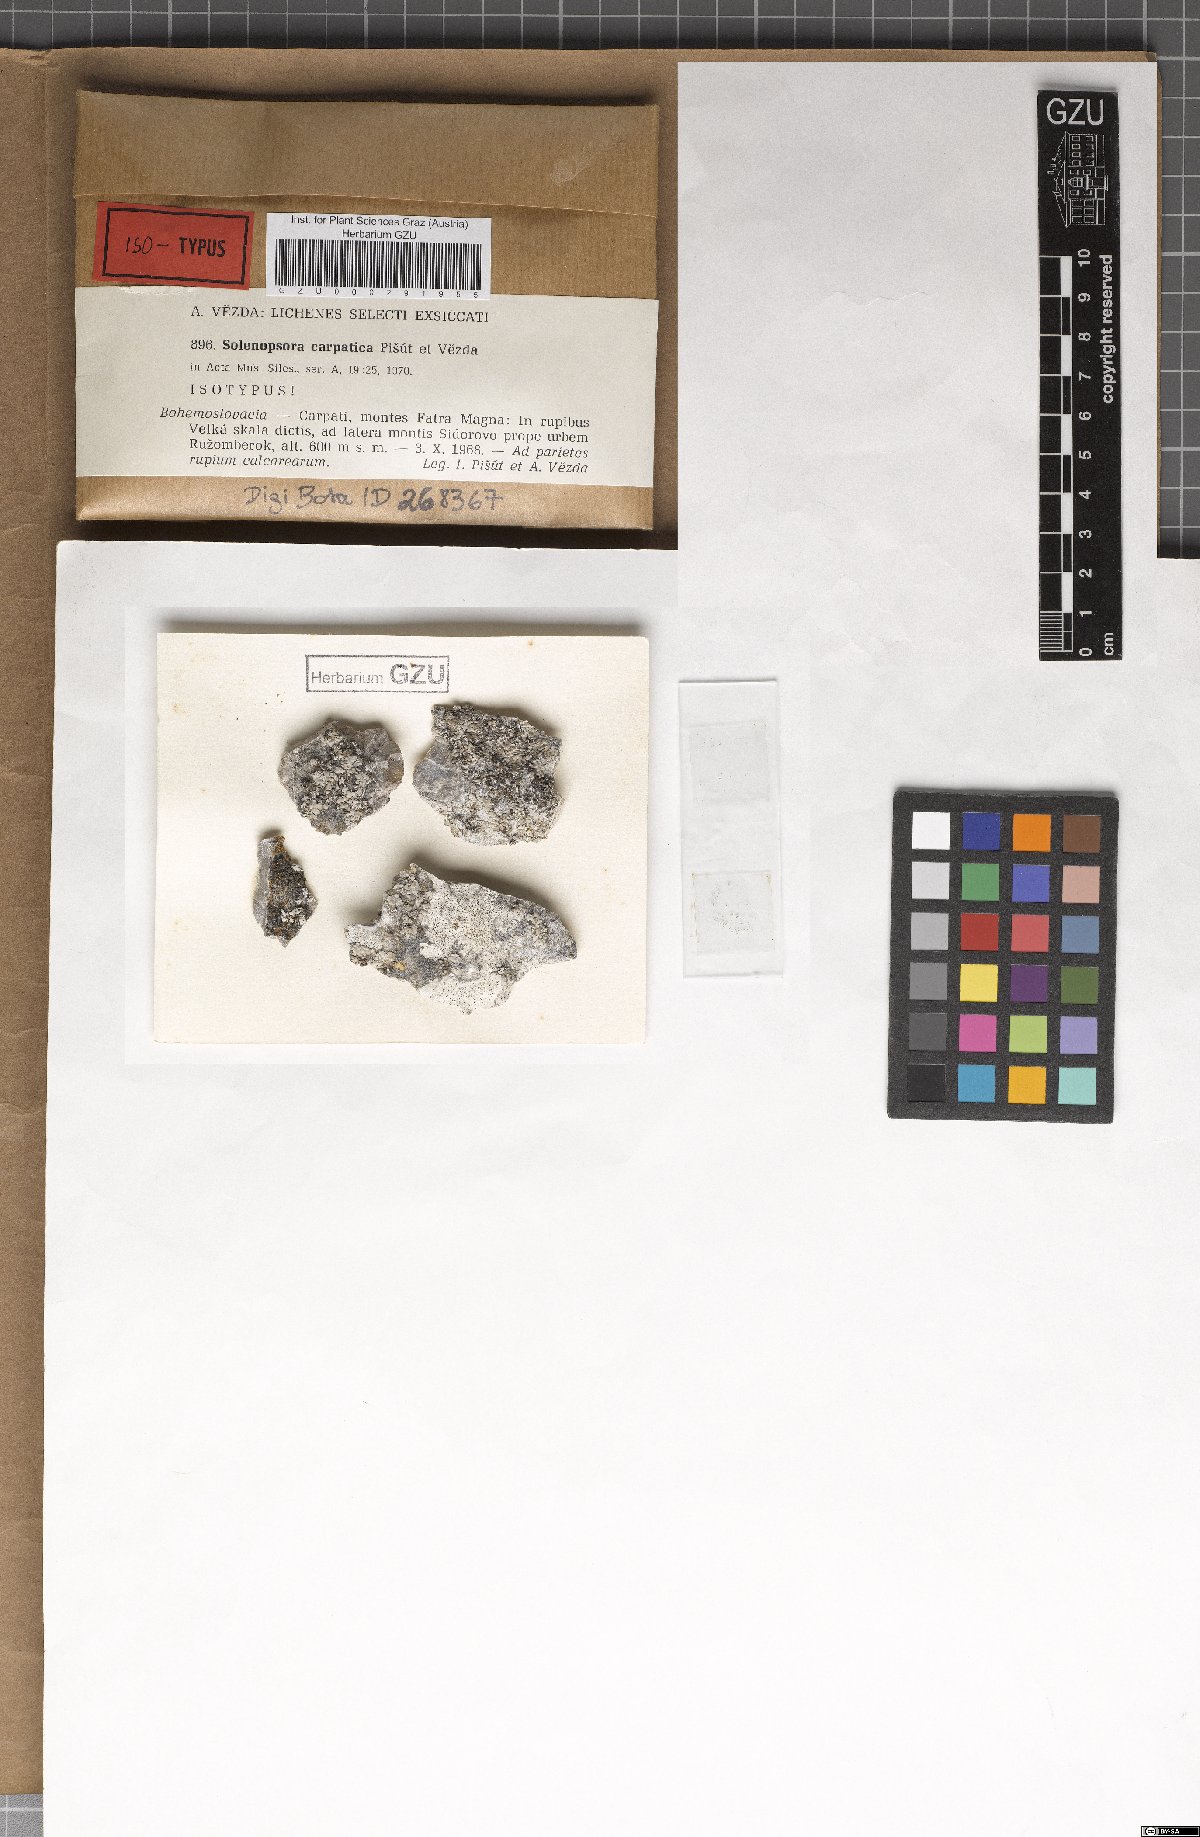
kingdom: Fungi
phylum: Ascomycota
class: Lecanoromycetes
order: Lecanorales
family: Catillariaceae
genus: Solenopsora
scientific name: Solenopsora carpatica
